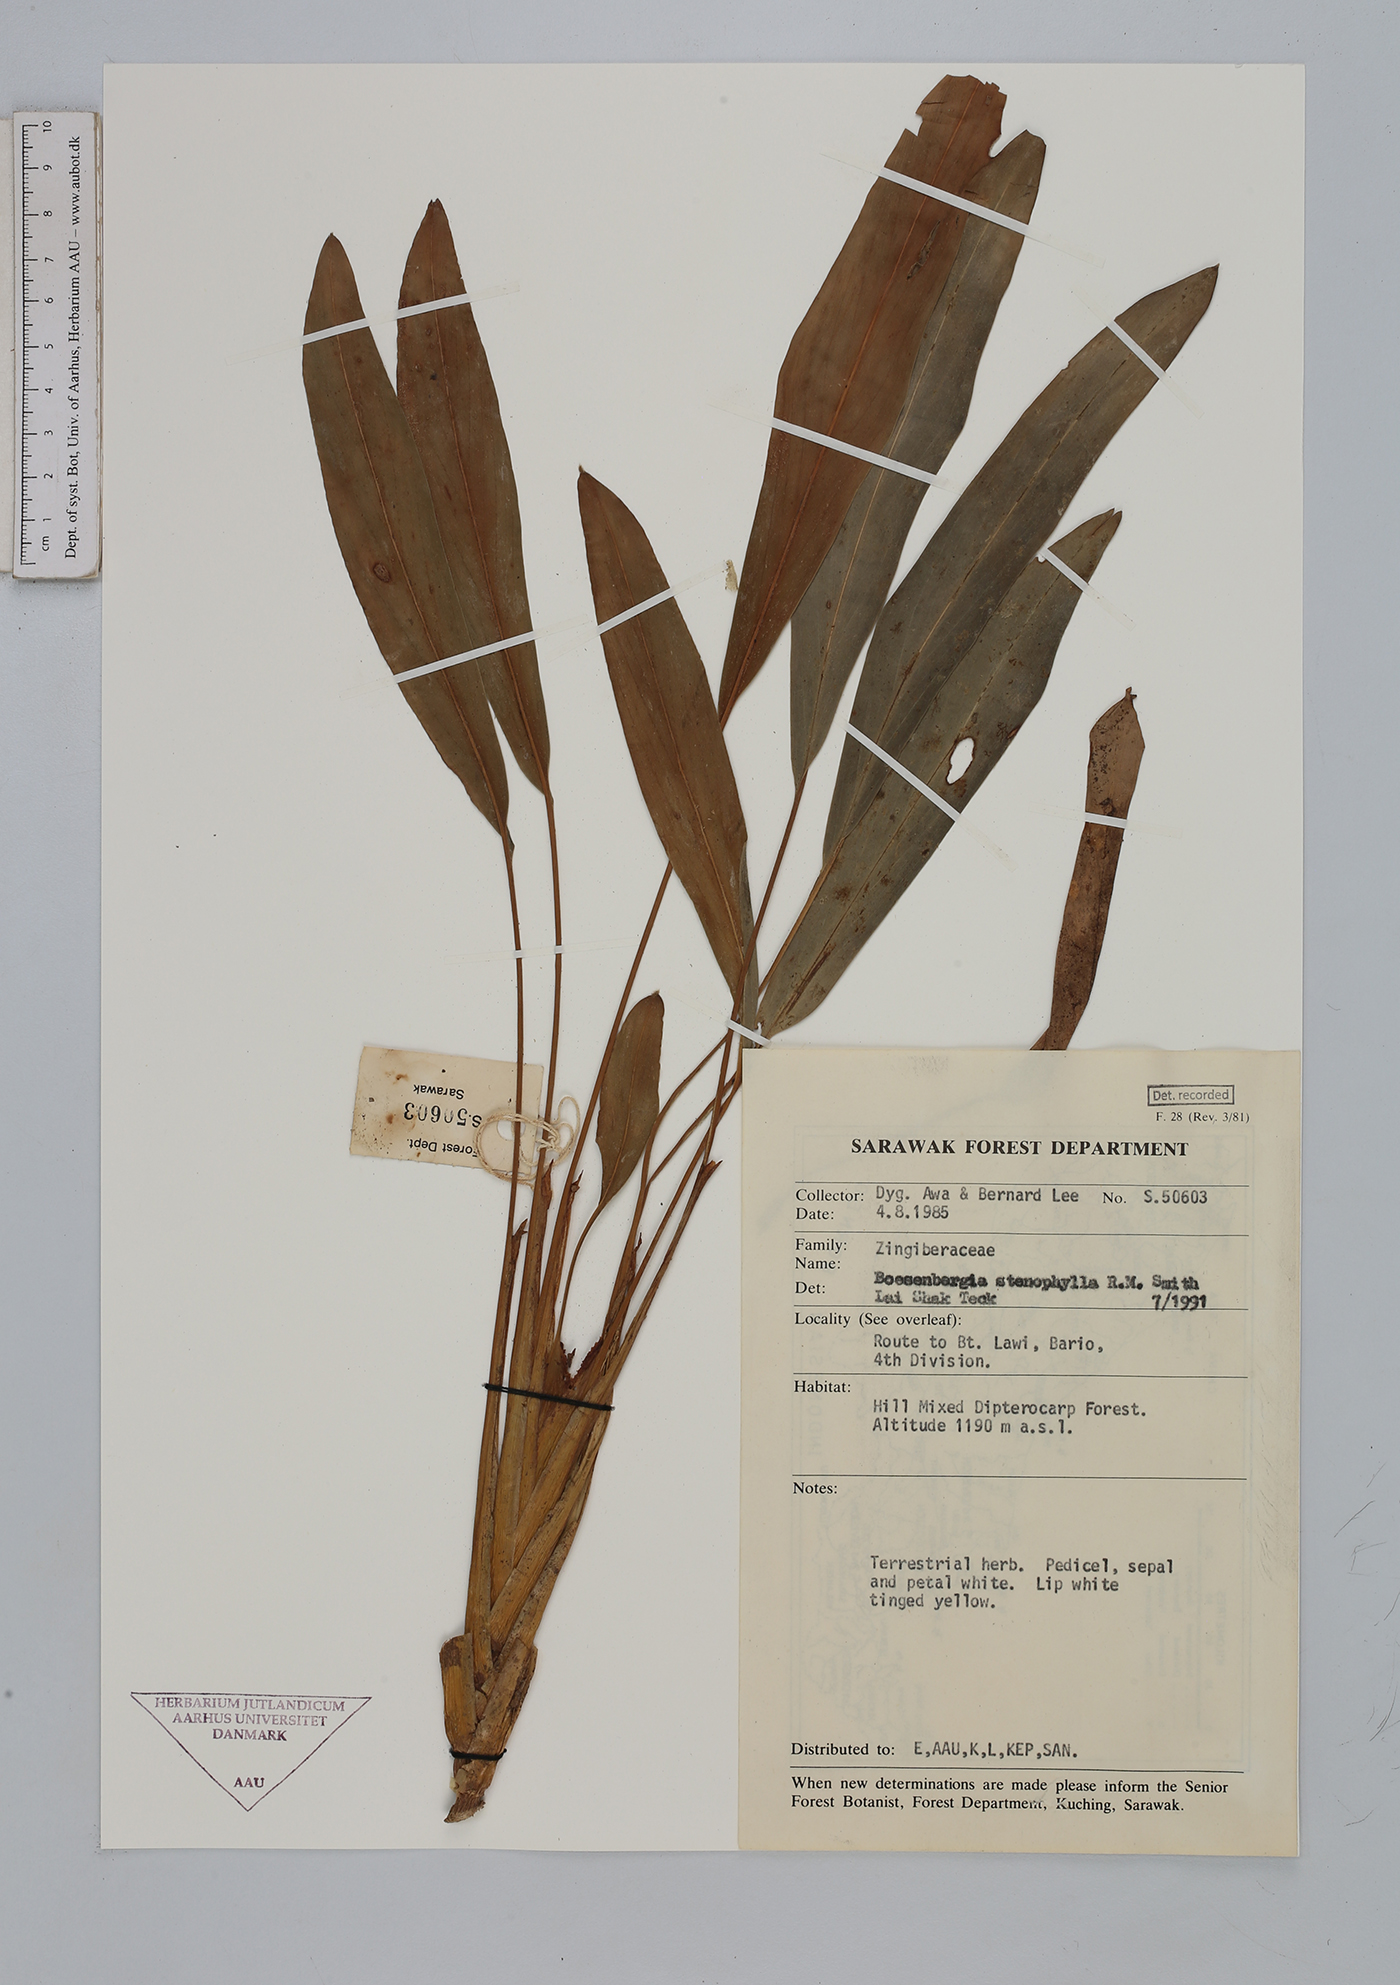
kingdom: Plantae
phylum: Tracheophyta
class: Liliopsida
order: Zingiberales
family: Zingiberaceae
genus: Boesenbergia
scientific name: Boesenbergia stenophylla
